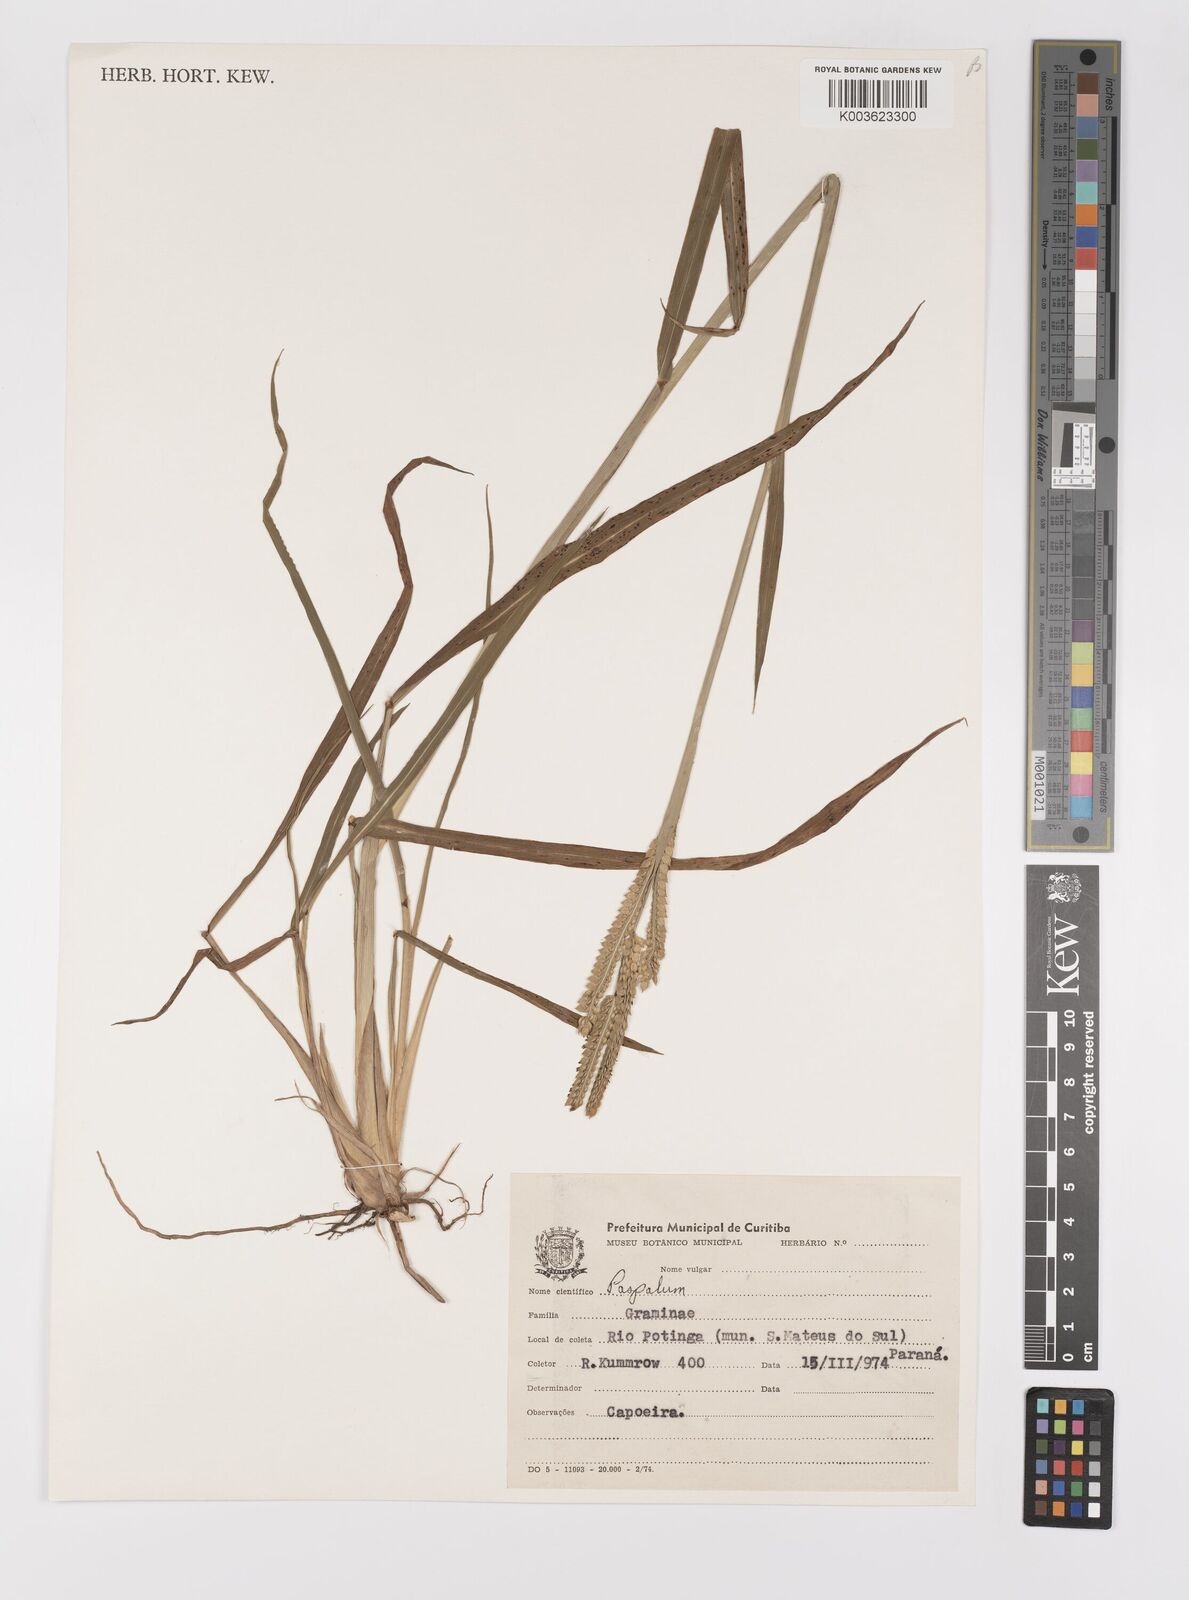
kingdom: Plantae
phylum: Tracheophyta
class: Liliopsida
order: Poales
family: Poaceae
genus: Paspalum
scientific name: Paspalum dilatatum
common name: Dallisgrass
